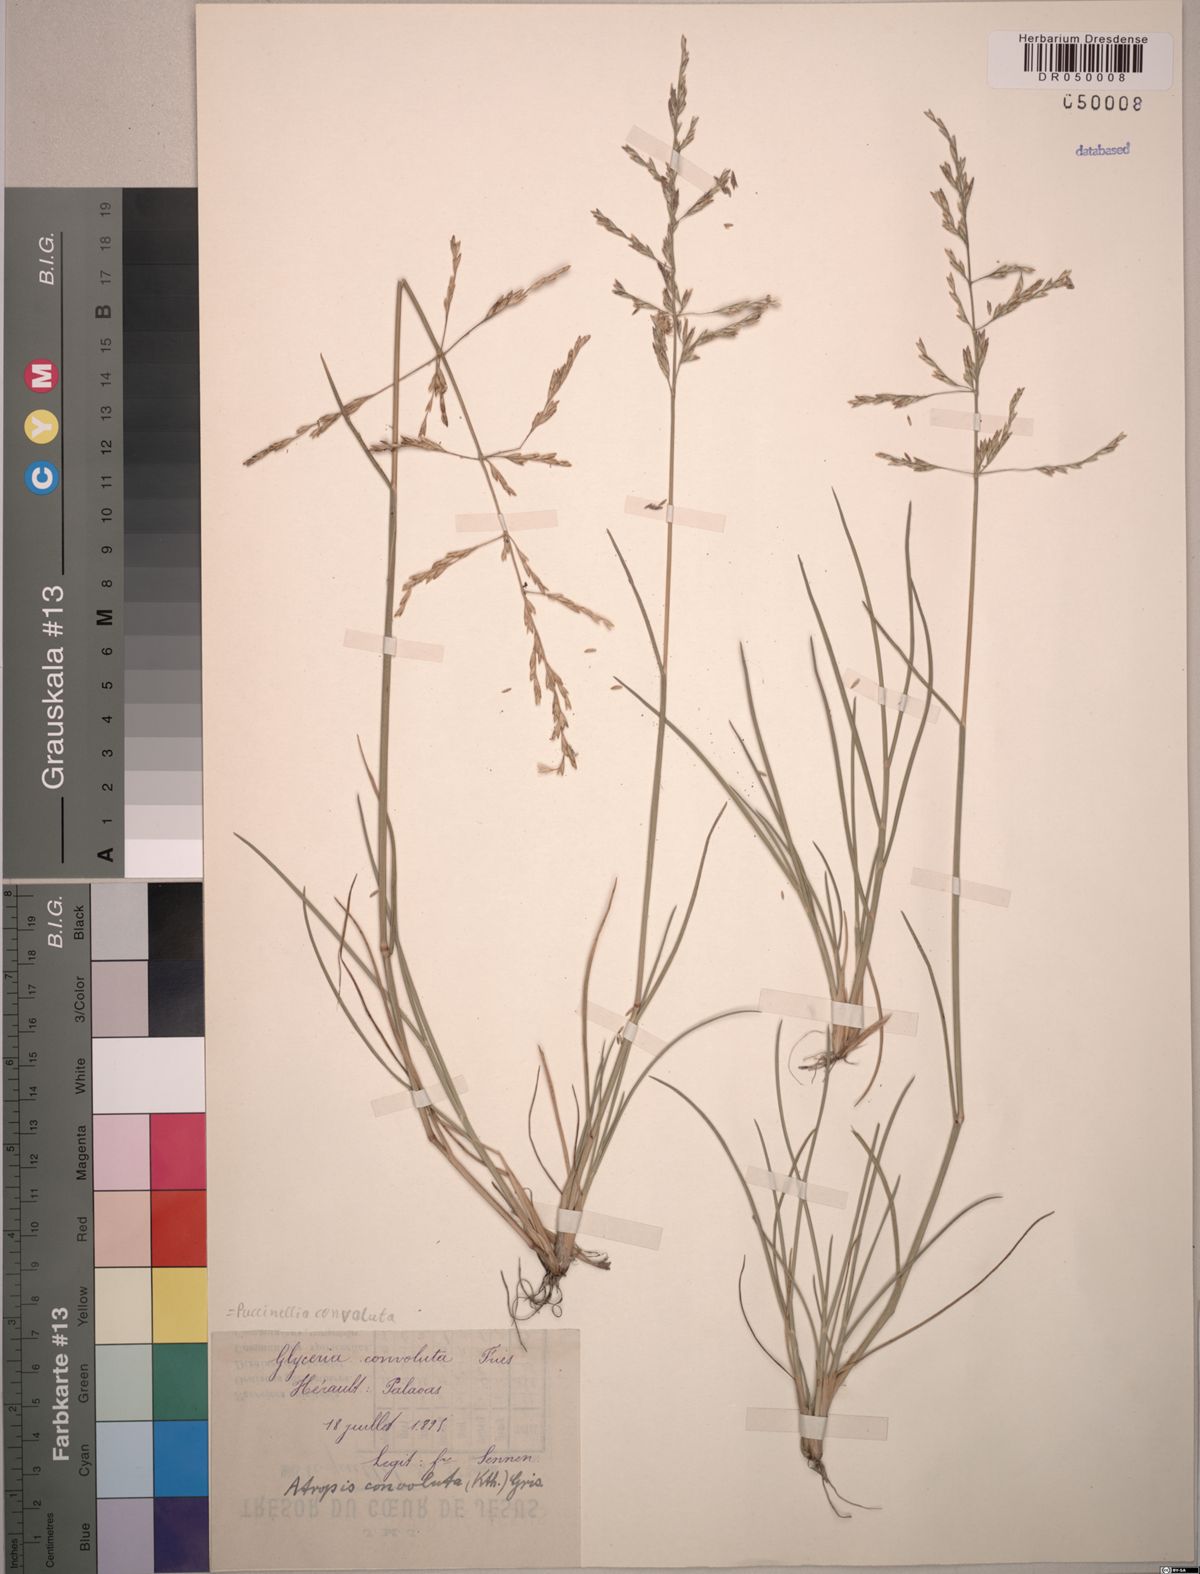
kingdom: Plantae
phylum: Tracheophyta
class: Liliopsida
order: Poales
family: Poaceae
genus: Puccinellia
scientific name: Puccinellia convoluta
